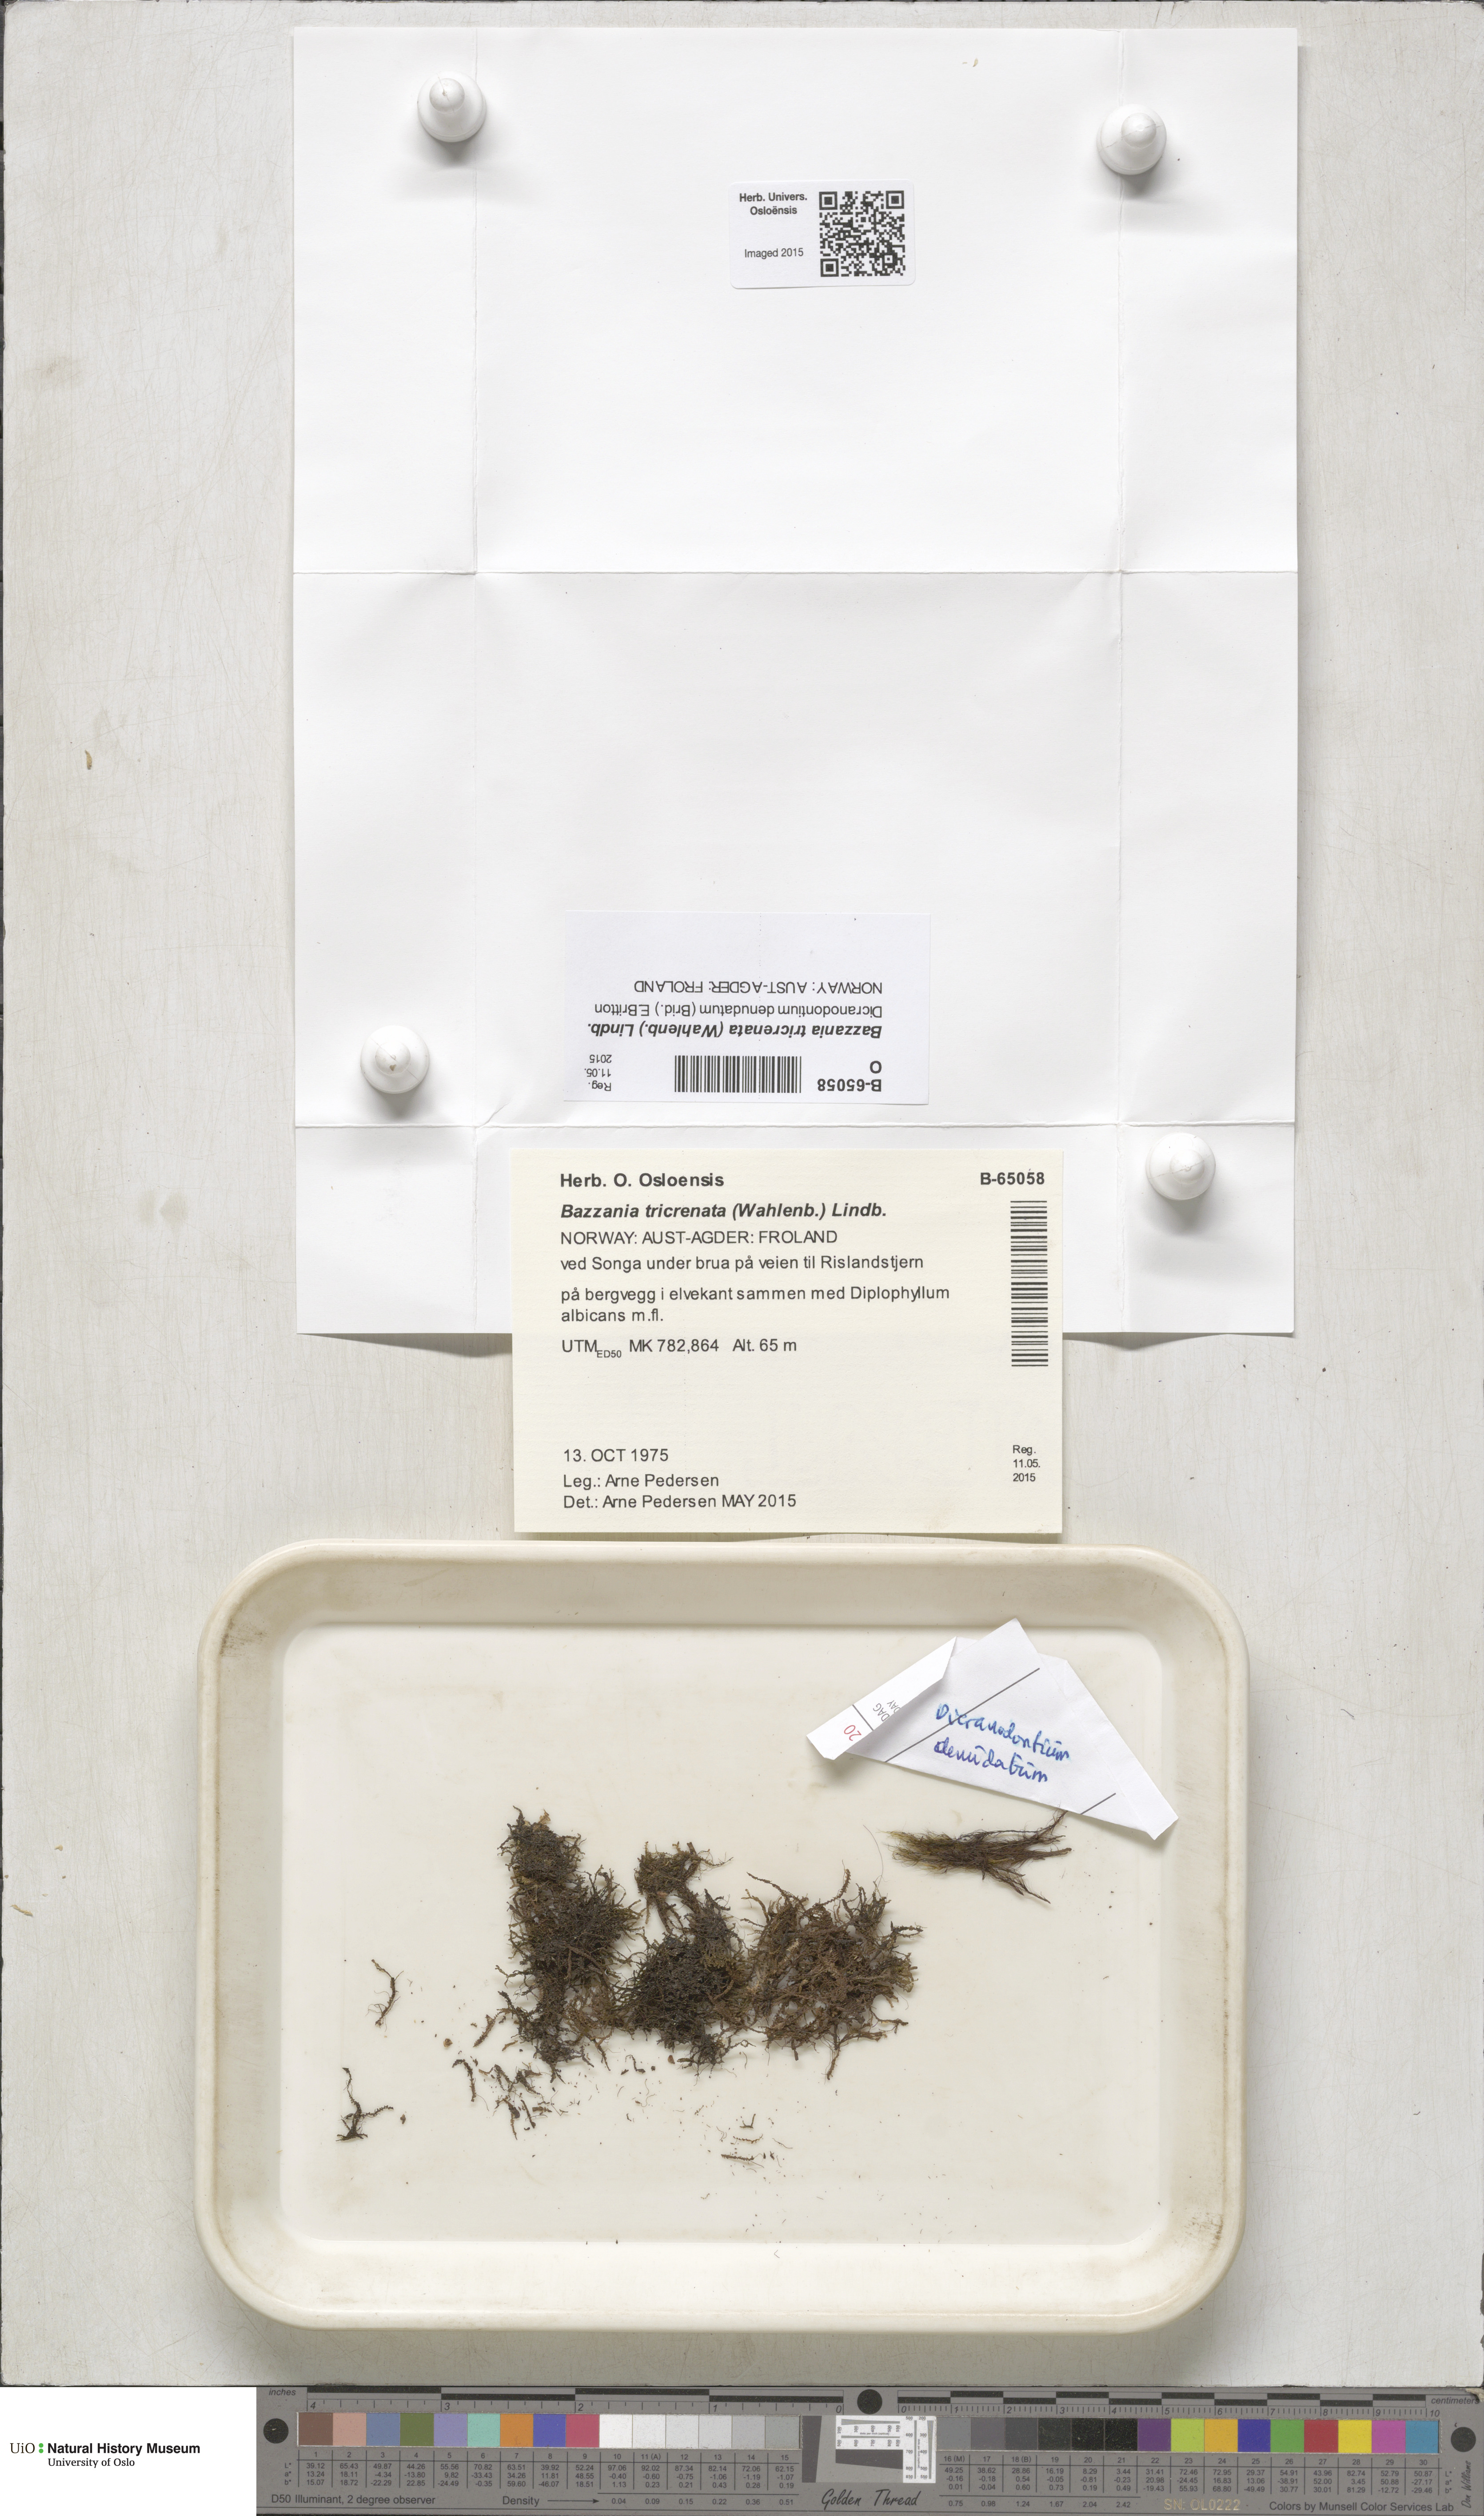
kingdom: Plantae
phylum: Marchantiophyta
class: Jungermanniopsida
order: Jungermanniales
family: Lepidoziaceae
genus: Bazzania
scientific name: Bazzania tricrenata
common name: Lesser whipwort
